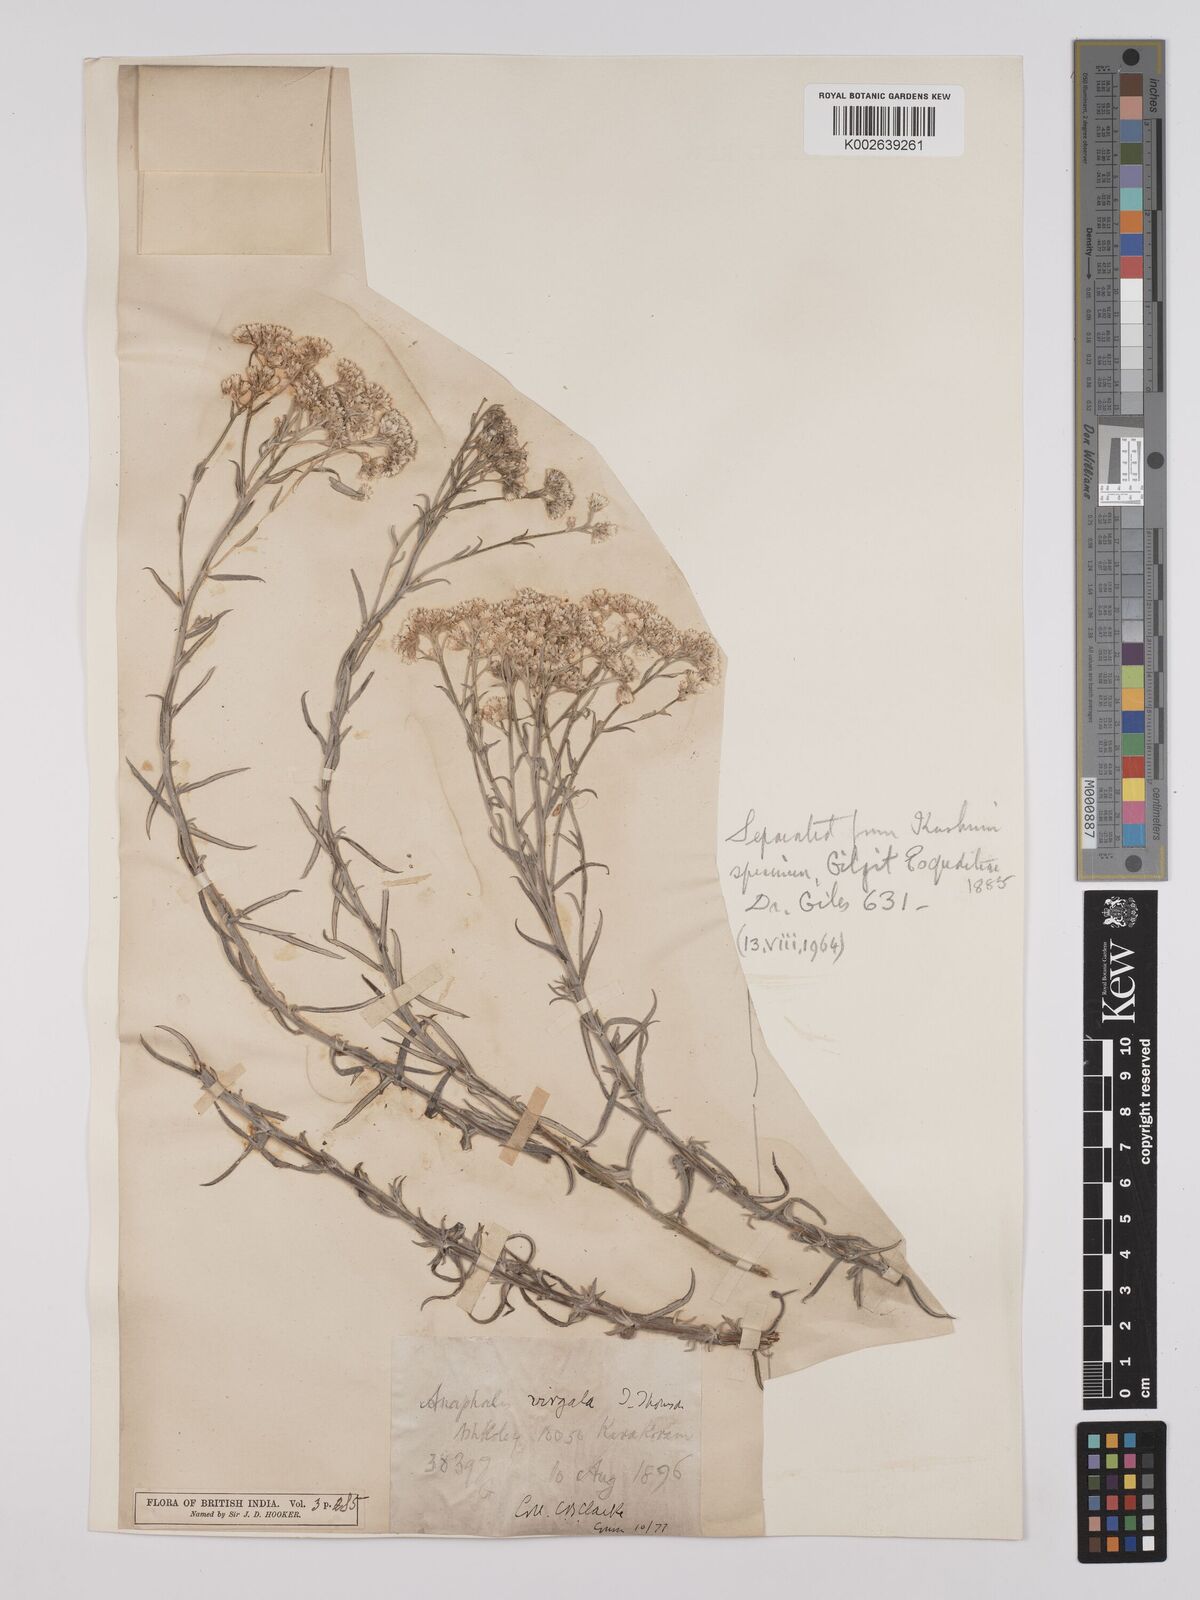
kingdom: Plantae
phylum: Tracheophyta
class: Magnoliopsida
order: Asterales
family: Asteraceae
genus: Anaphalis
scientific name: Anaphalis virgata
